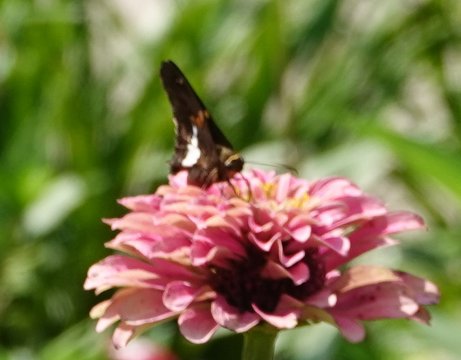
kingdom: Animalia
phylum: Arthropoda
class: Insecta
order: Lepidoptera
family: Hesperiidae
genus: Epargyreus
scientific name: Epargyreus clarus
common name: Silver-spotted Skipper
